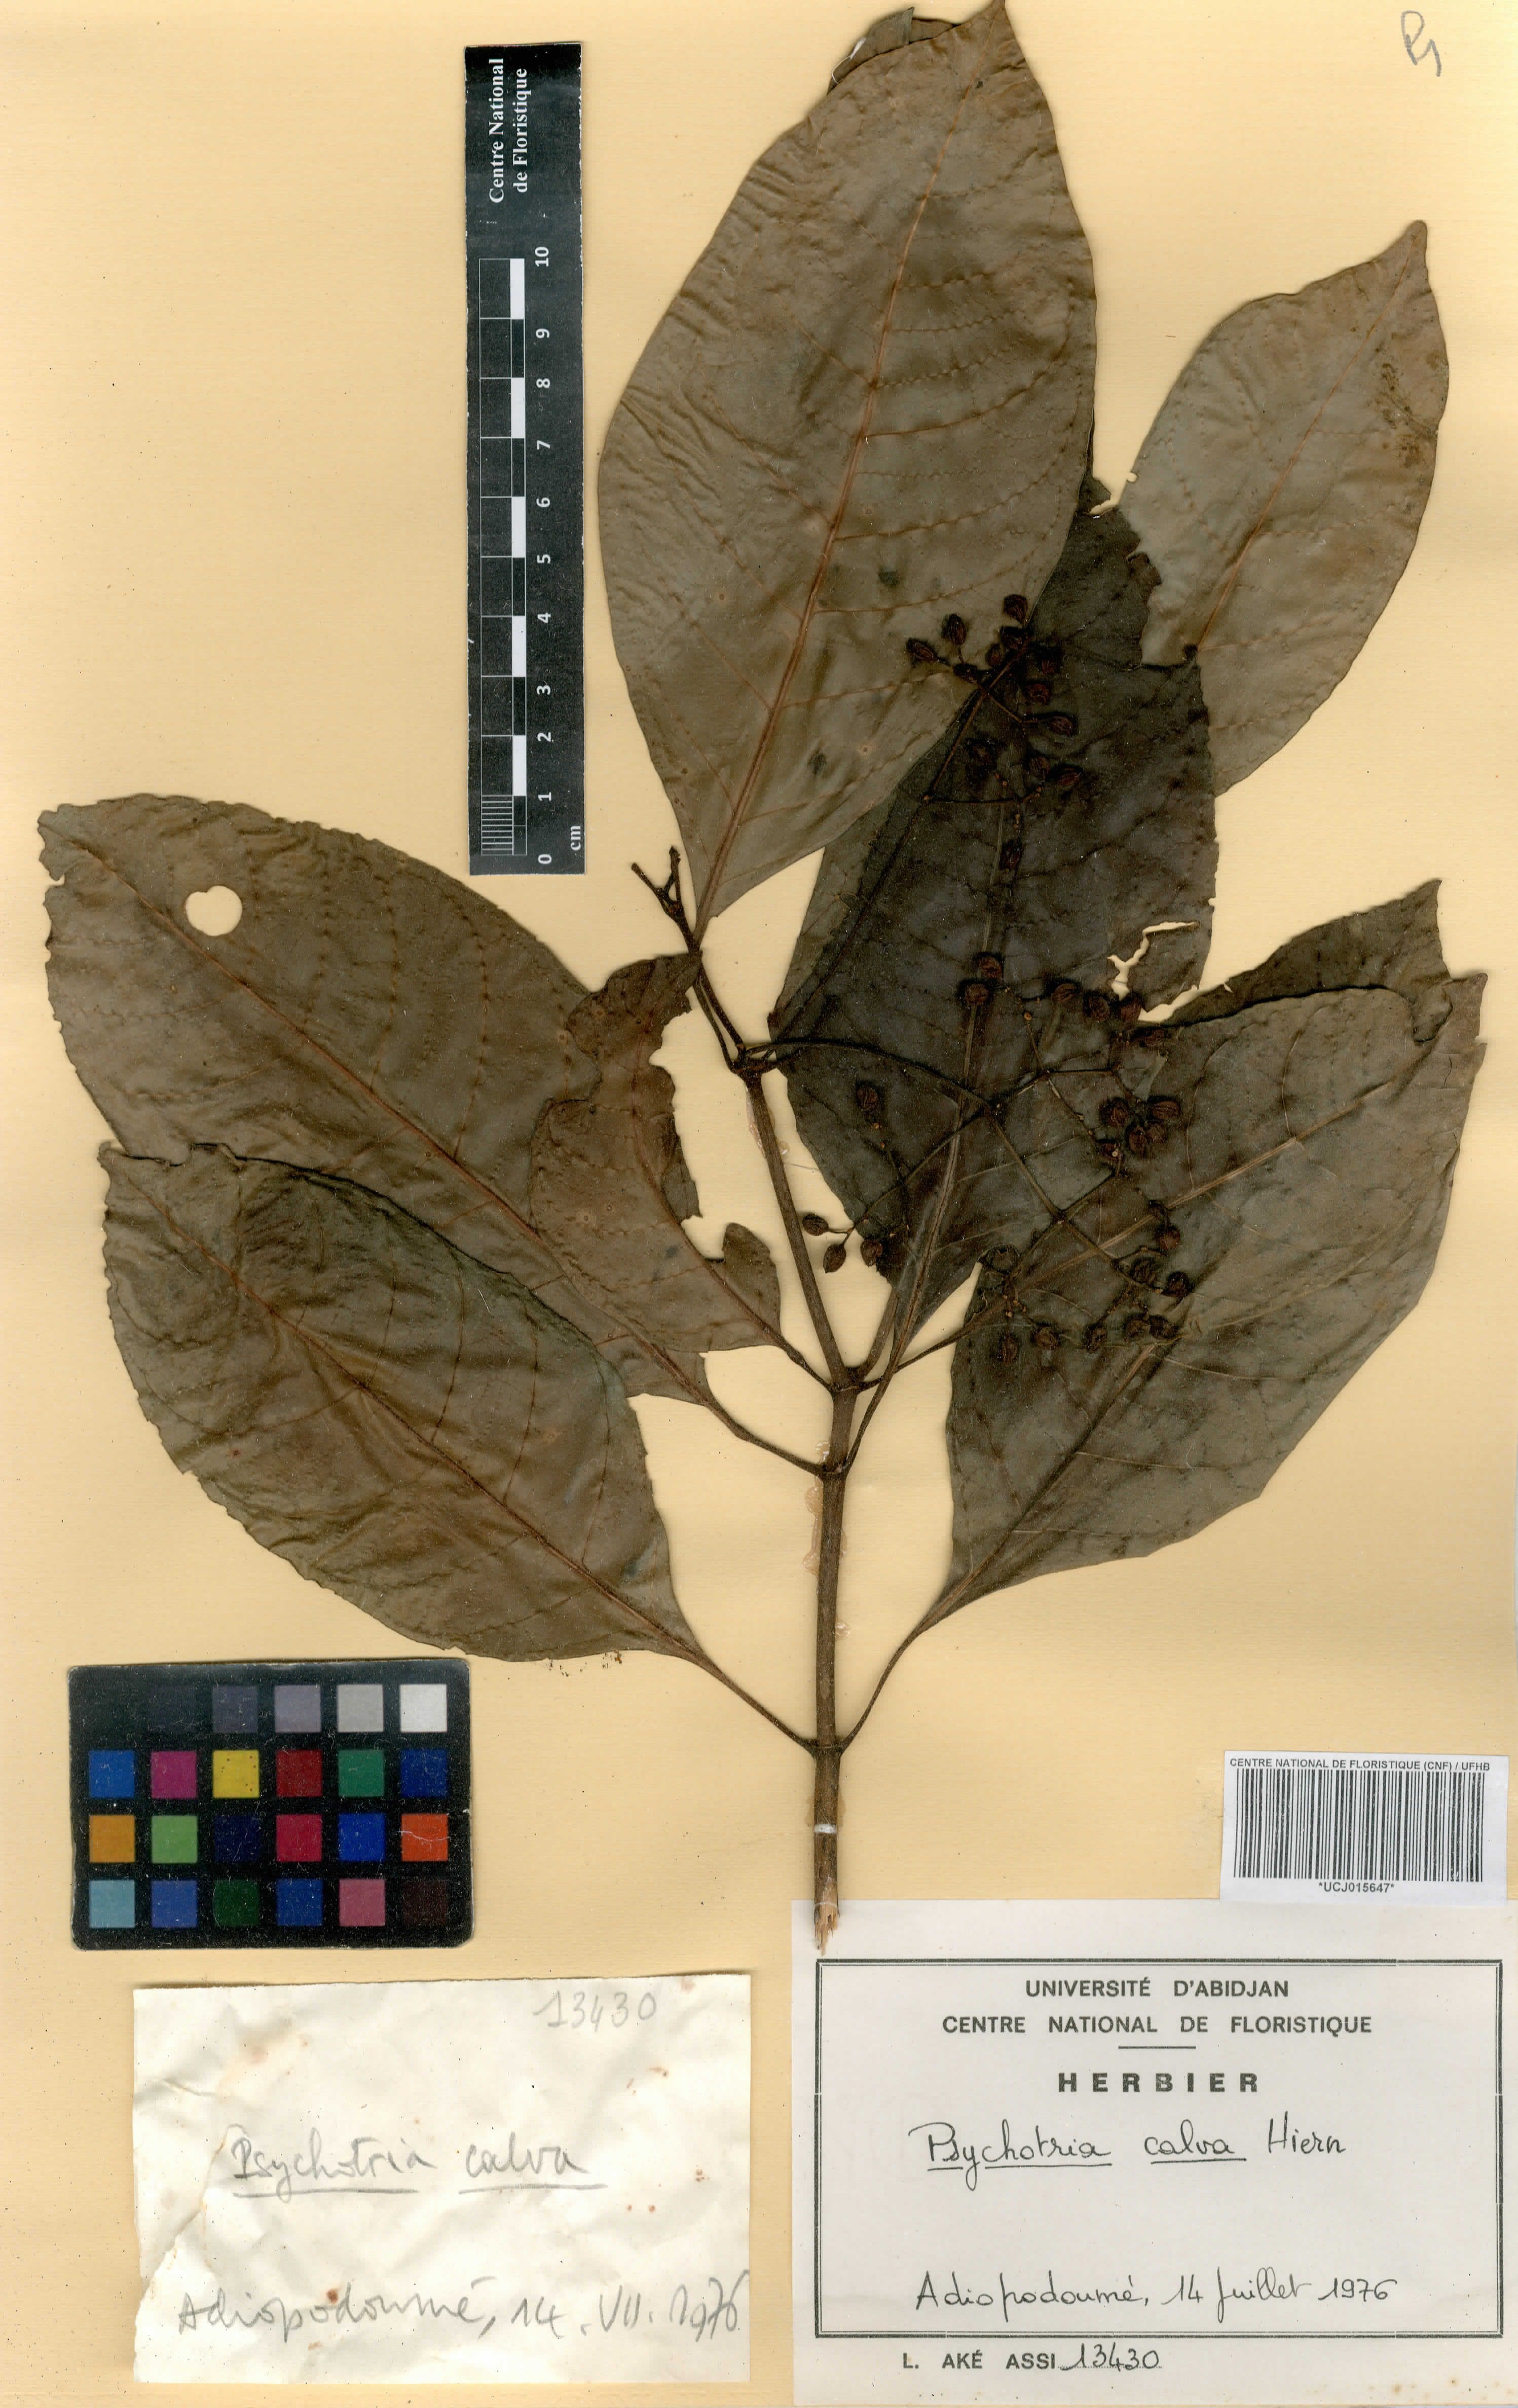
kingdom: Plantae
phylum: Tracheophyta
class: Magnoliopsida
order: Gentianales
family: Rubiaceae
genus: Psychotria
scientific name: Psychotria calva
